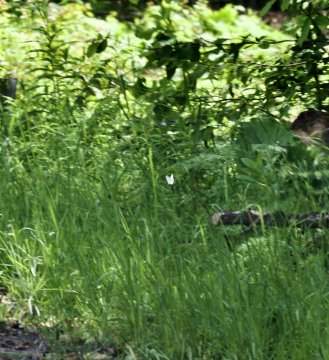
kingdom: Animalia
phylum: Arthropoda
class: Insecta
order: Lepidoptera
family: Pieridae
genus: Pieris
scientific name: Pieris rapae
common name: Cabbage White
